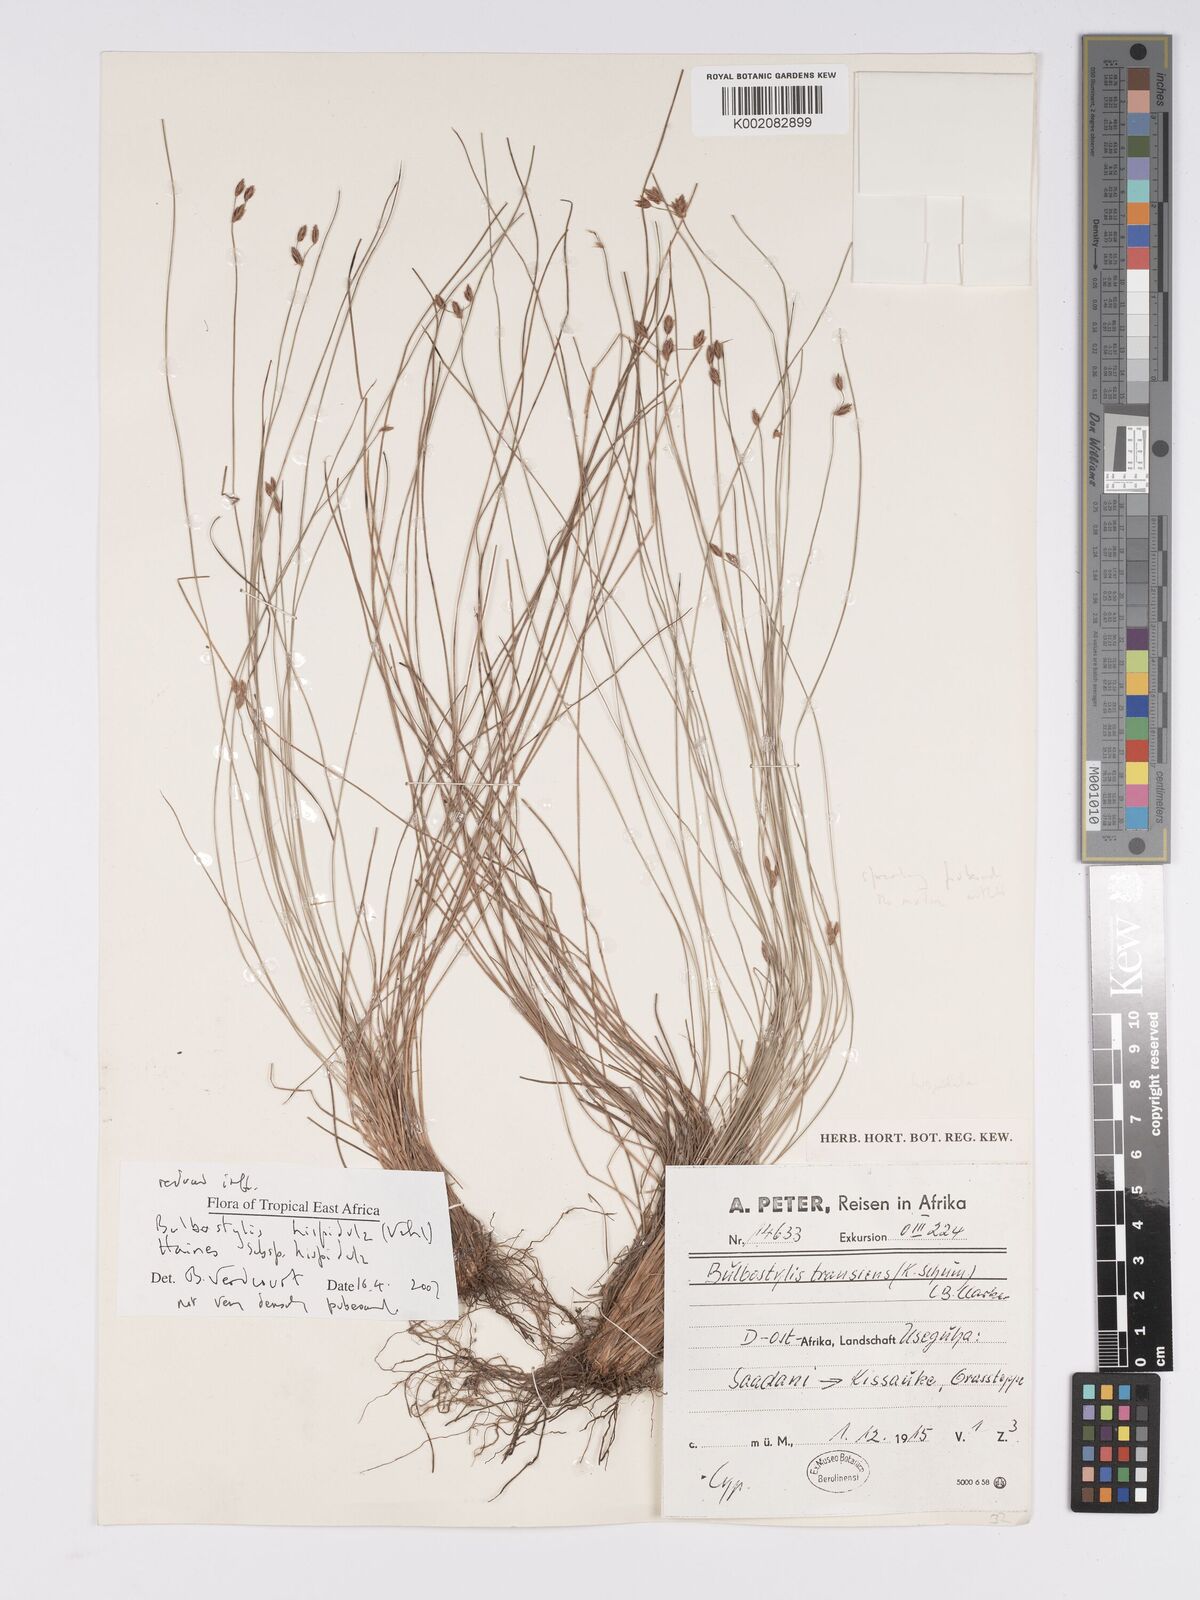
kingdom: Plantae
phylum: Tracheophyta
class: Liliopsida
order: Poales
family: Cyperaceae
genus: Bulbostylis
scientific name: Bulbostylis hispidula
